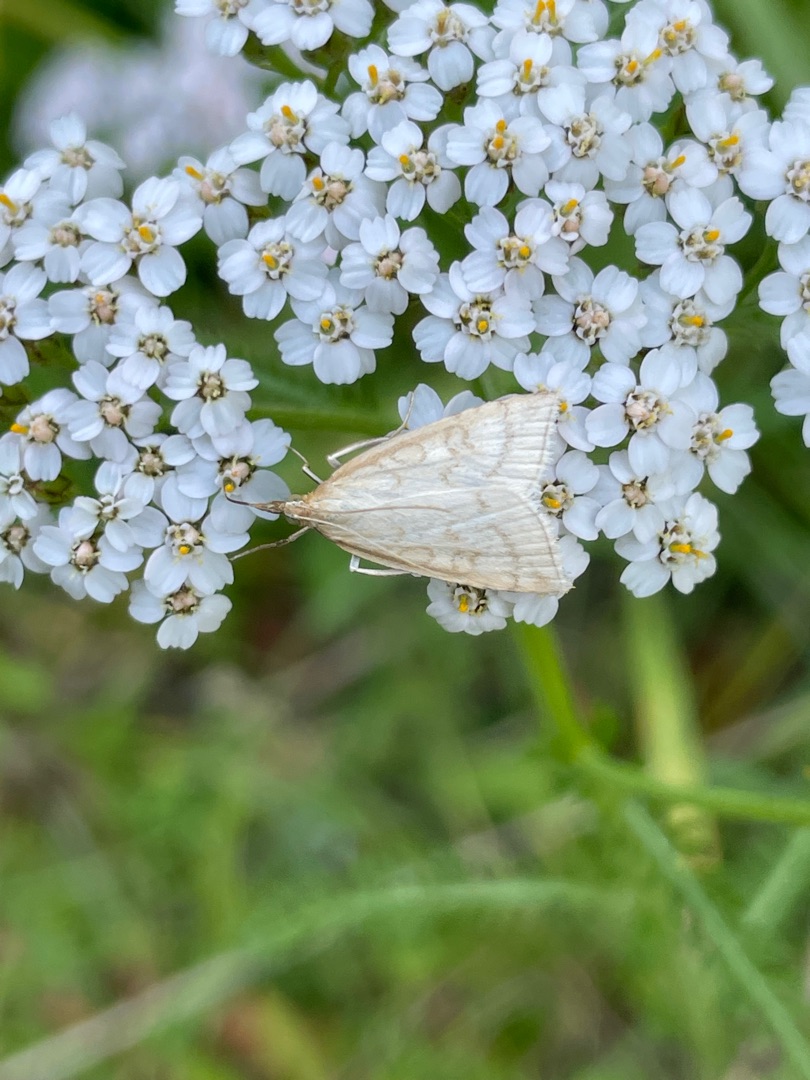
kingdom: Animalia
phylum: Arthropoda
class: Insecta
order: Lepidoptera
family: Crambidae
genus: Udea
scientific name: Udea lutealis
